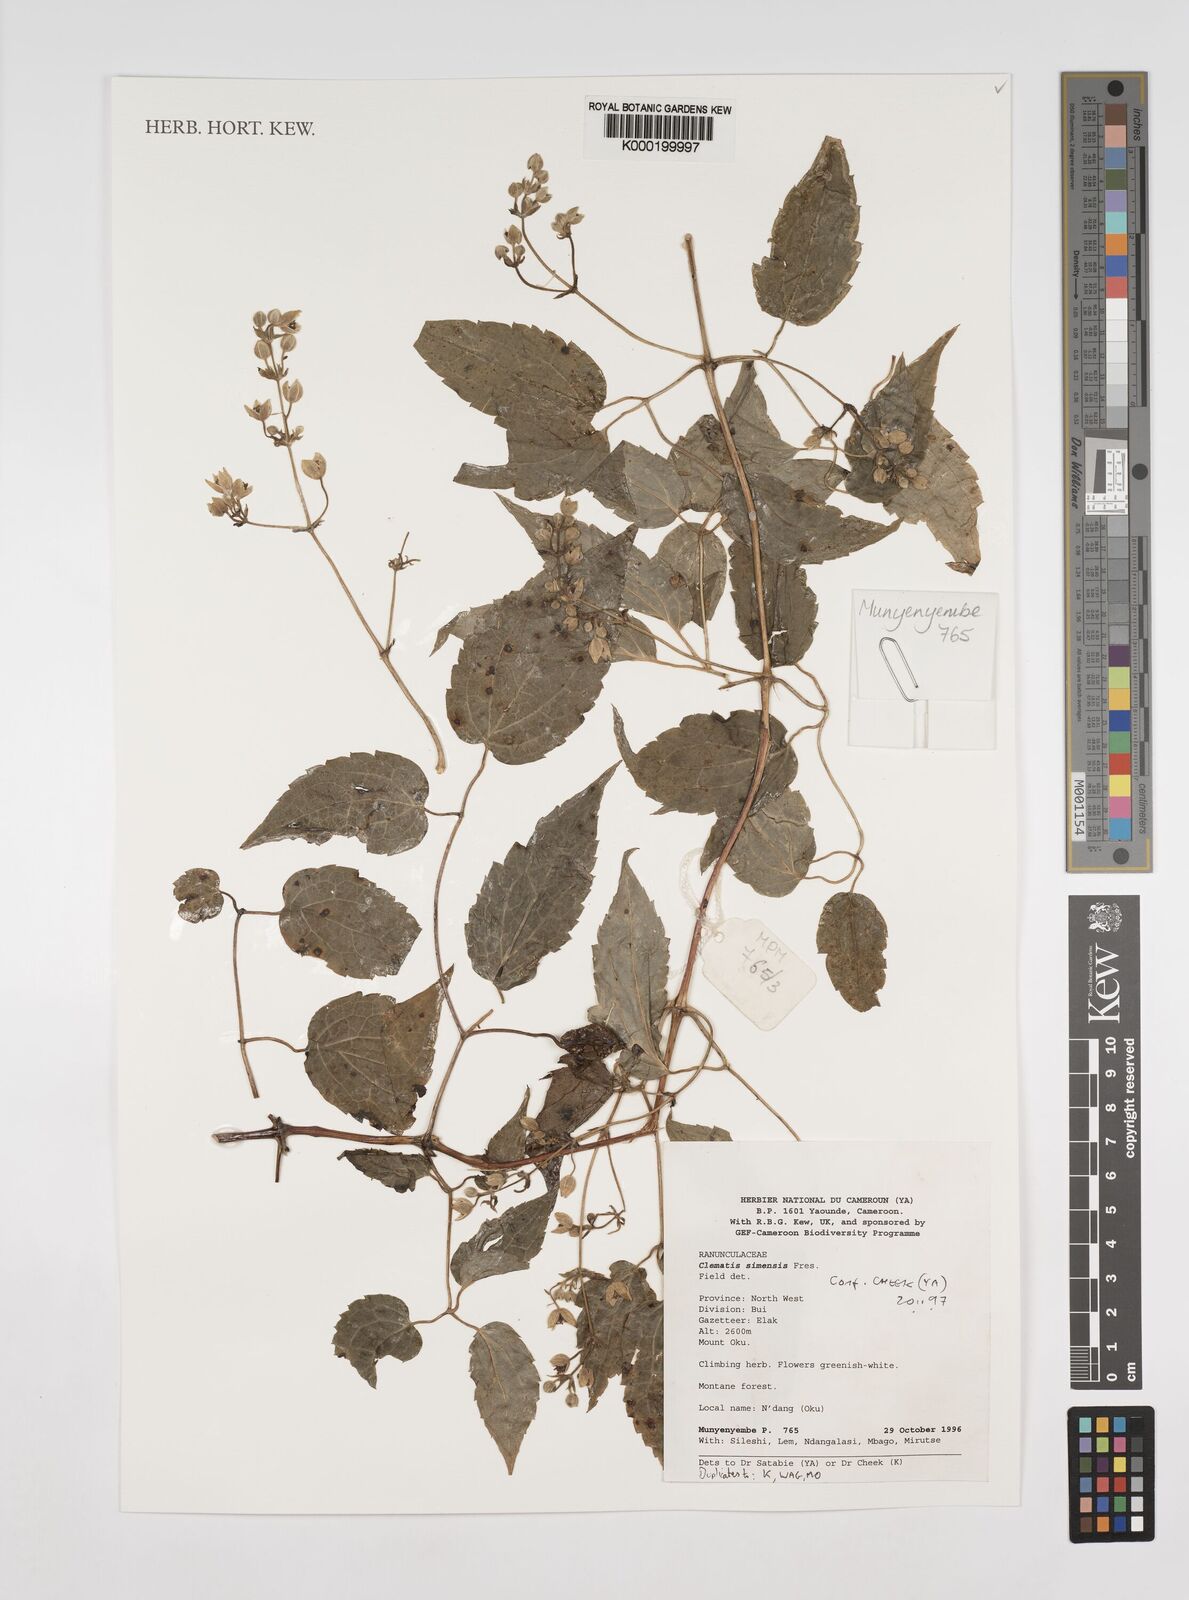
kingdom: Plantae
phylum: Tracheophyta
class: Magnoliopsida
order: Ranunculales
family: Ranunculaceae
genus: Clematis
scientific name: Clematis simensis
